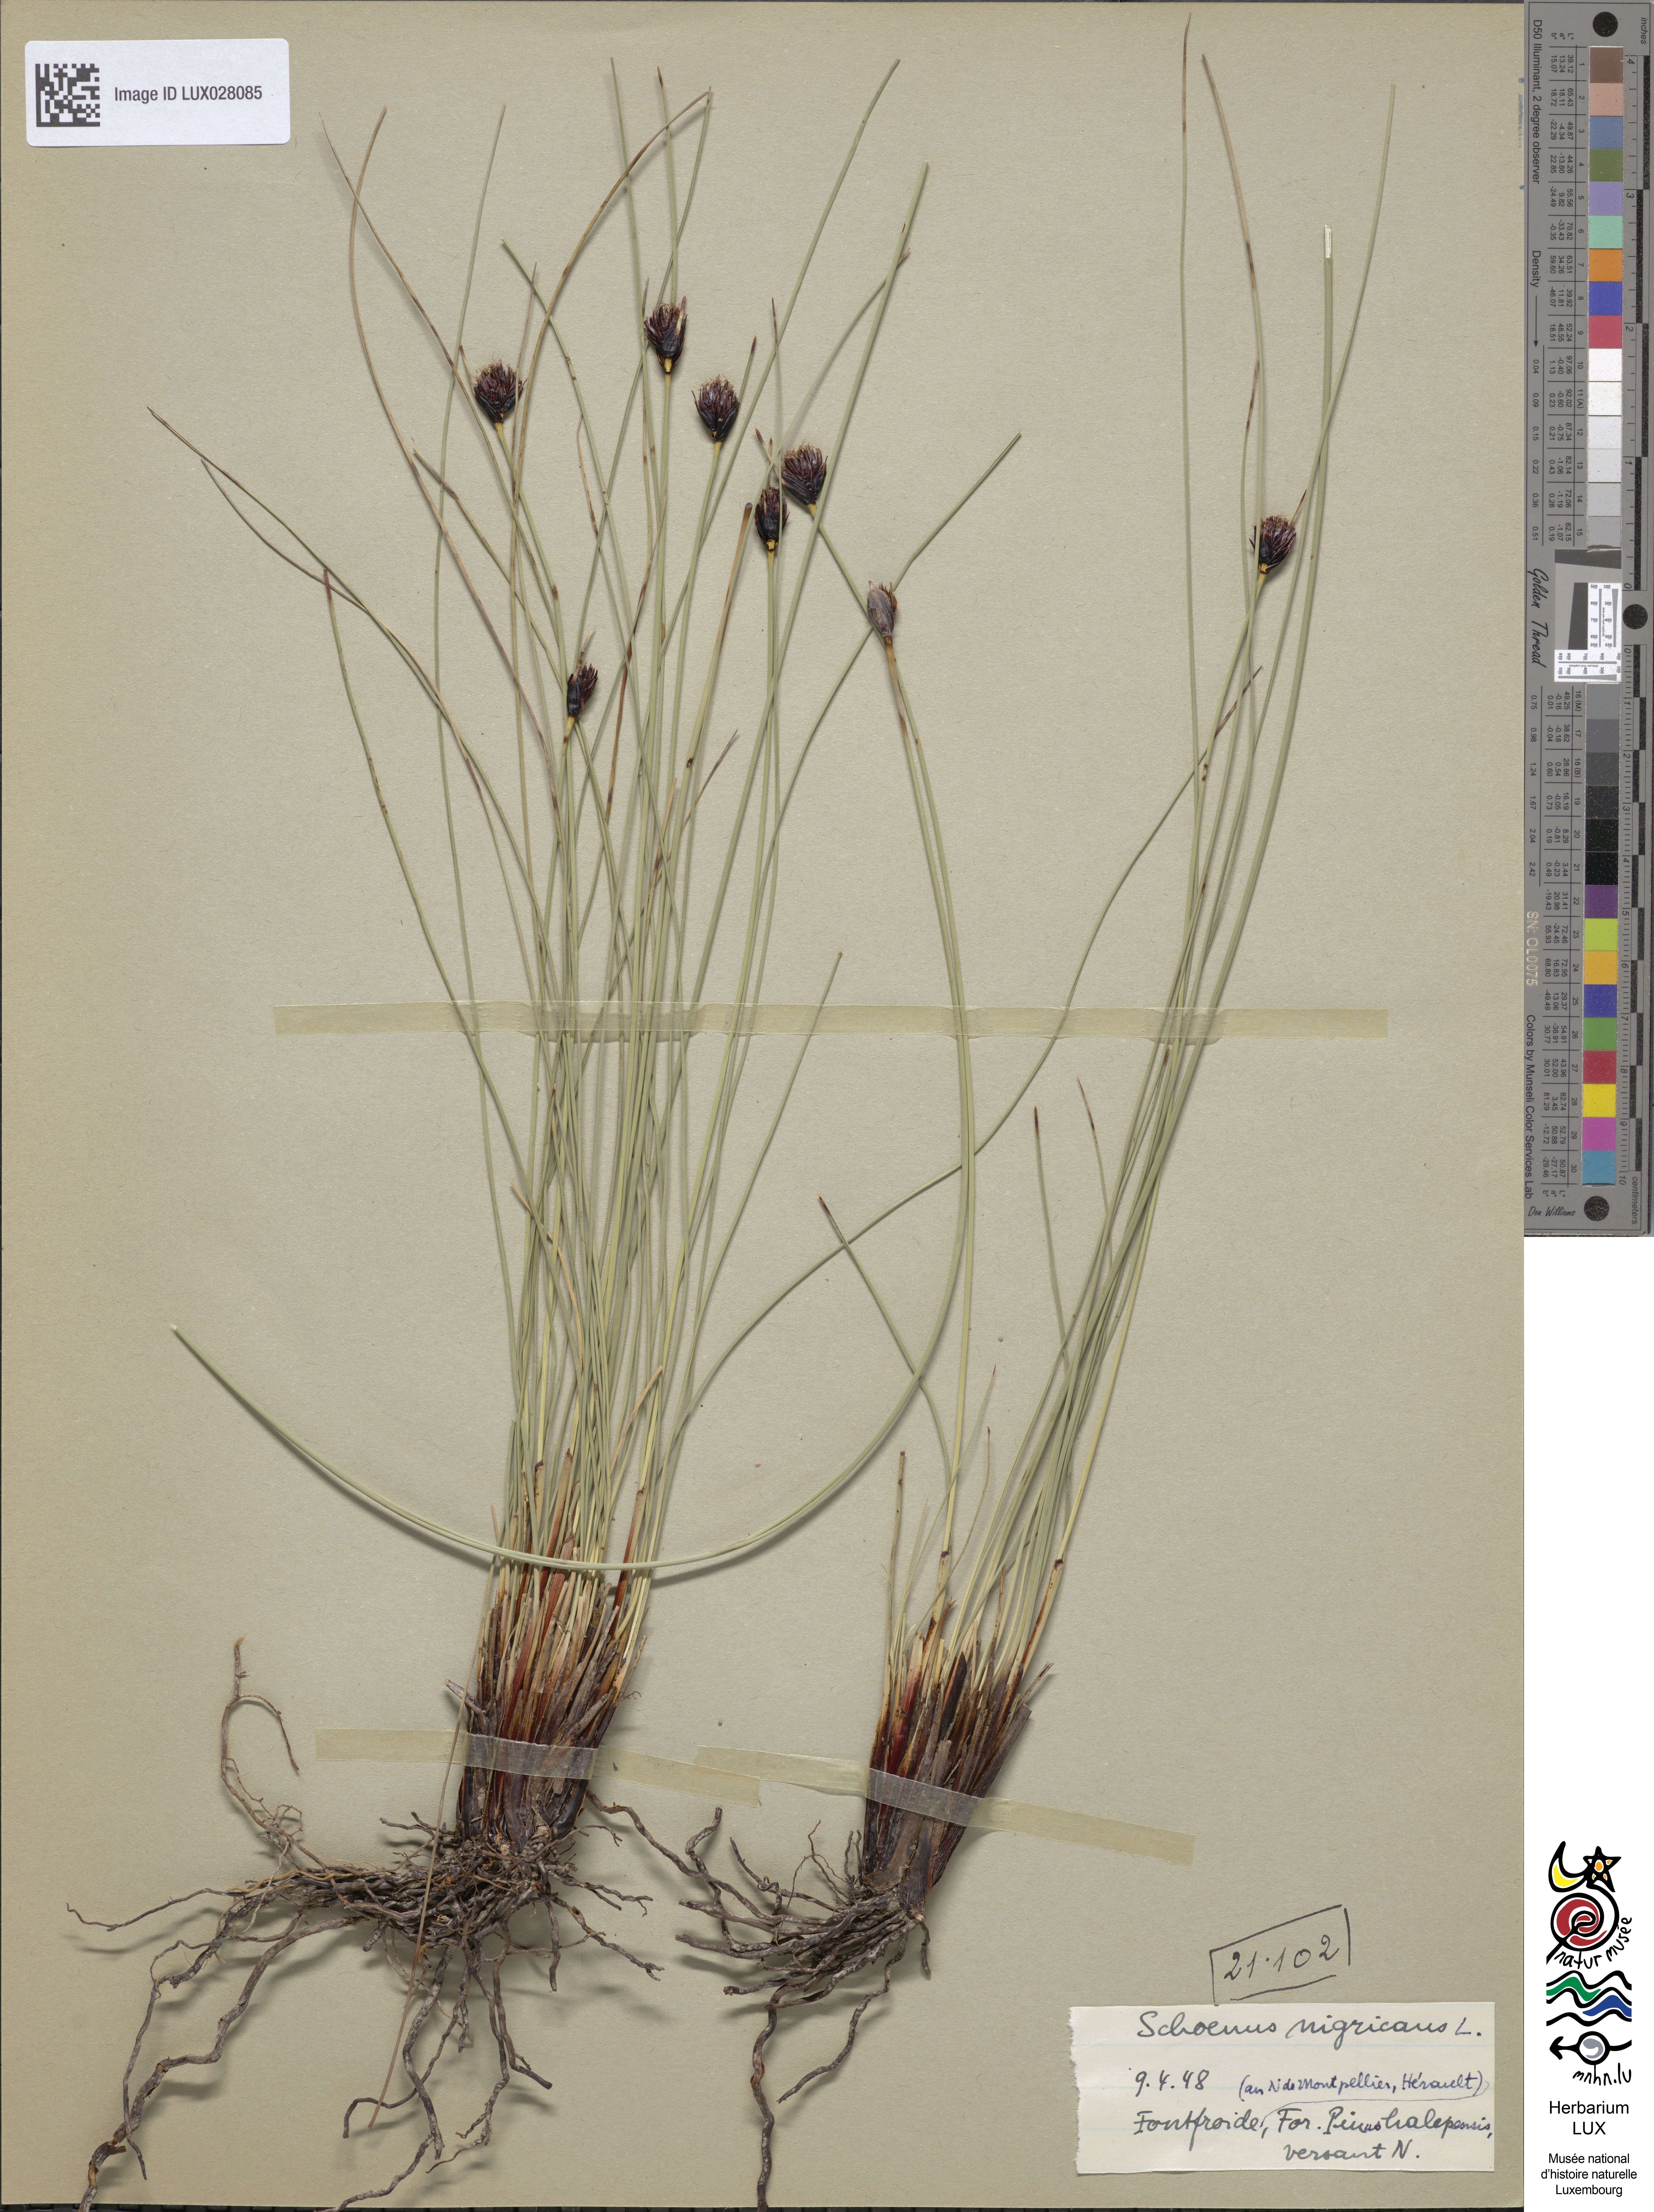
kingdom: Plantae
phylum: Tracheophyta
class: Liliopsida
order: Poales
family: Cyperaceae
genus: Schoenus
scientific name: Schoenus nigricans
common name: Black bog-rush
